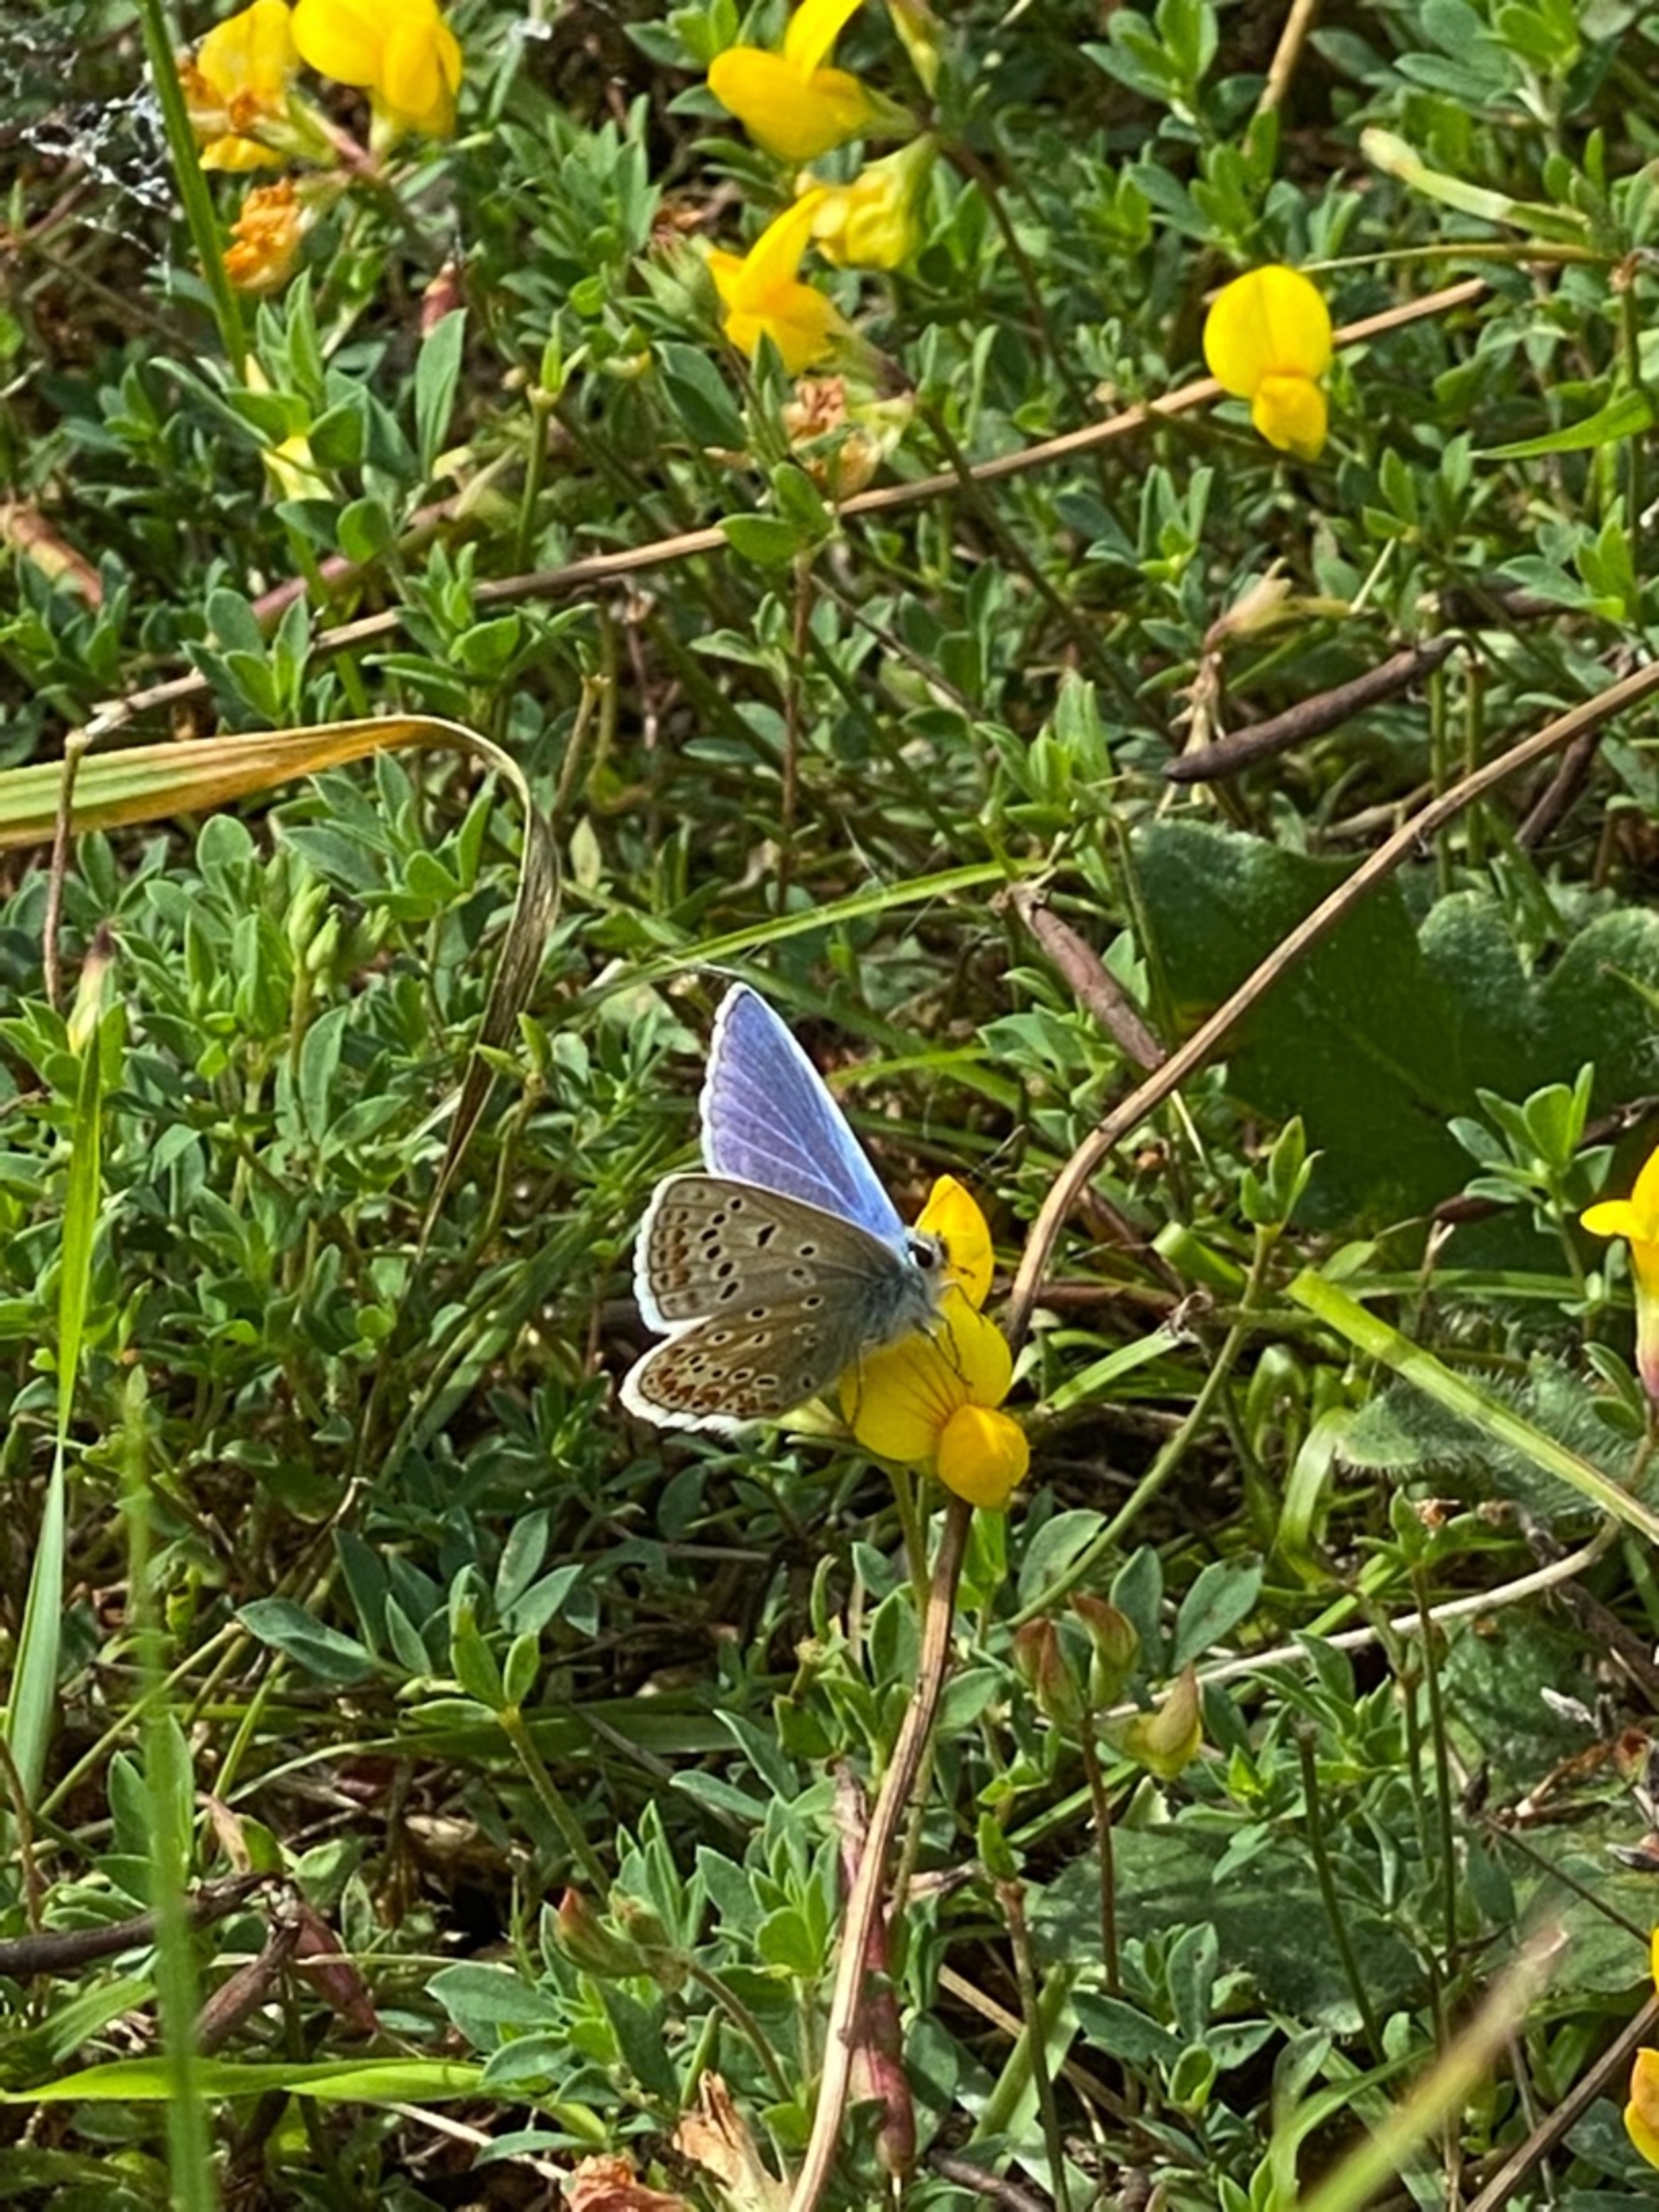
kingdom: Animalia
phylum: Arthropoda
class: Insecta
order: Lepidoptera
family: Lycaenidae
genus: Polyommatus
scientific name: Polyommatus icarus
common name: Almindelig blåfugl
